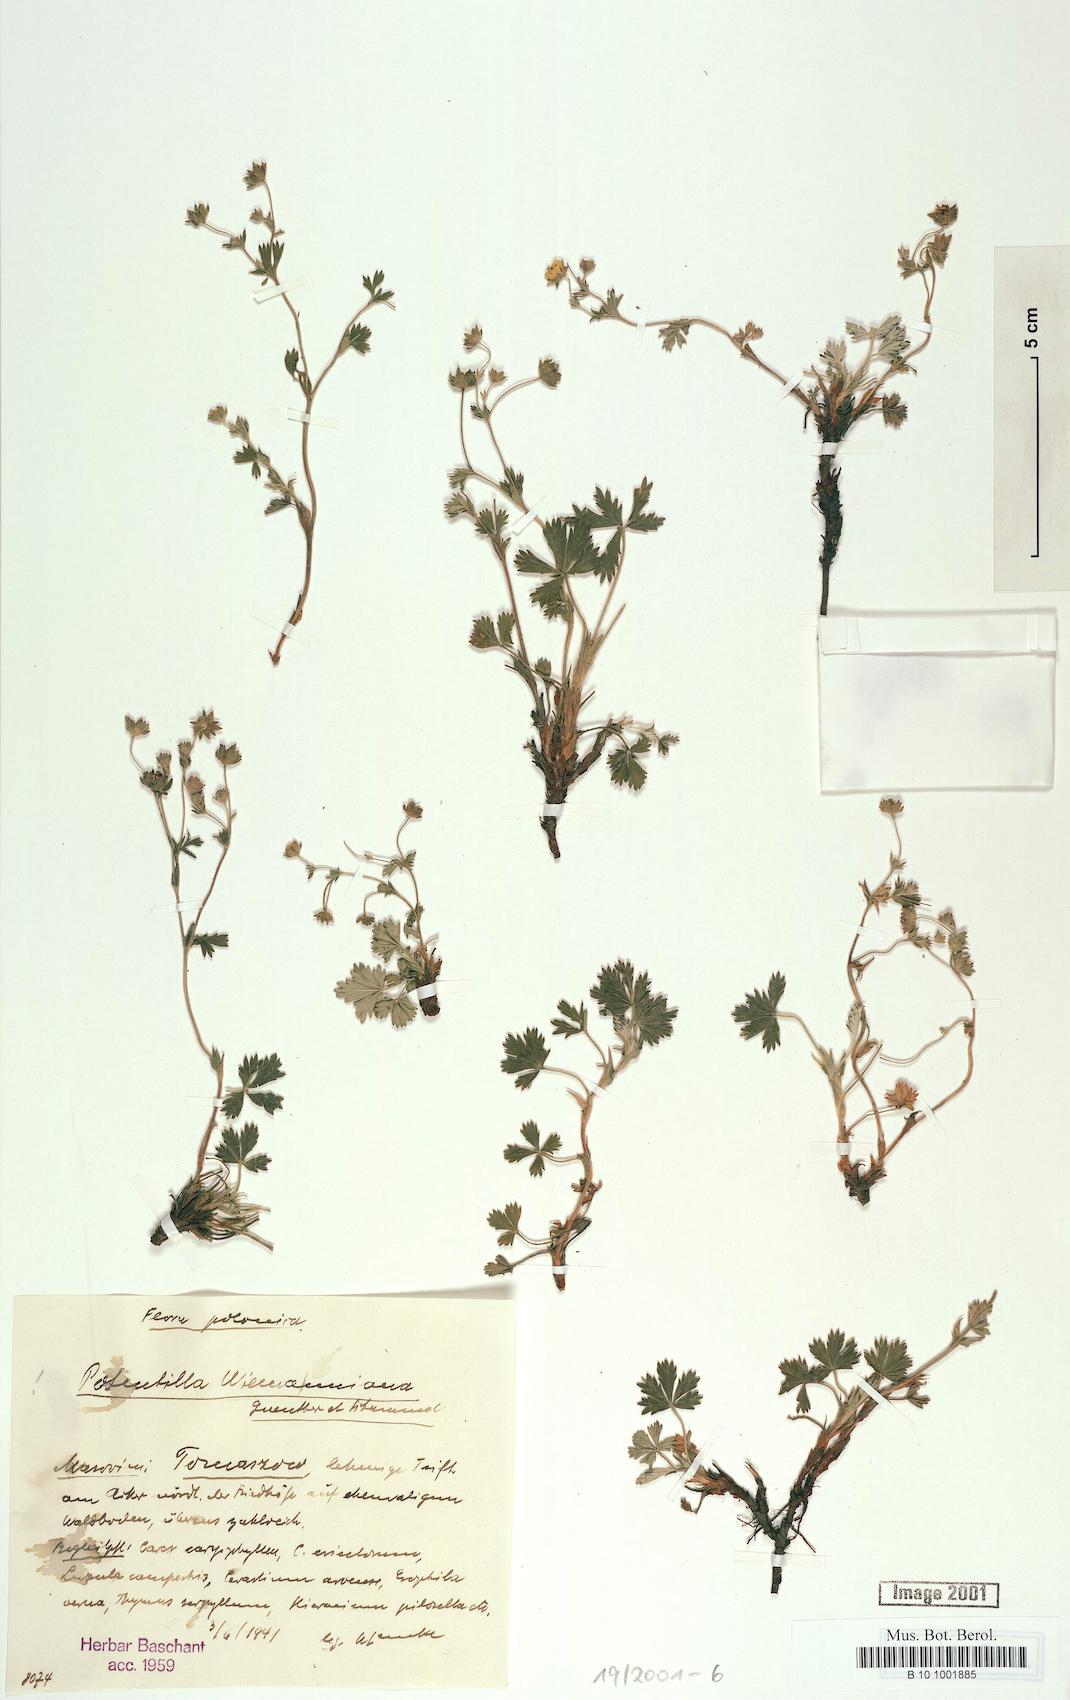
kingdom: Plantae
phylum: Tracheophyta
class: Magnoliopsida
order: Rosales
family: Rosaceae
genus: Potentilla
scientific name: Potentilla
